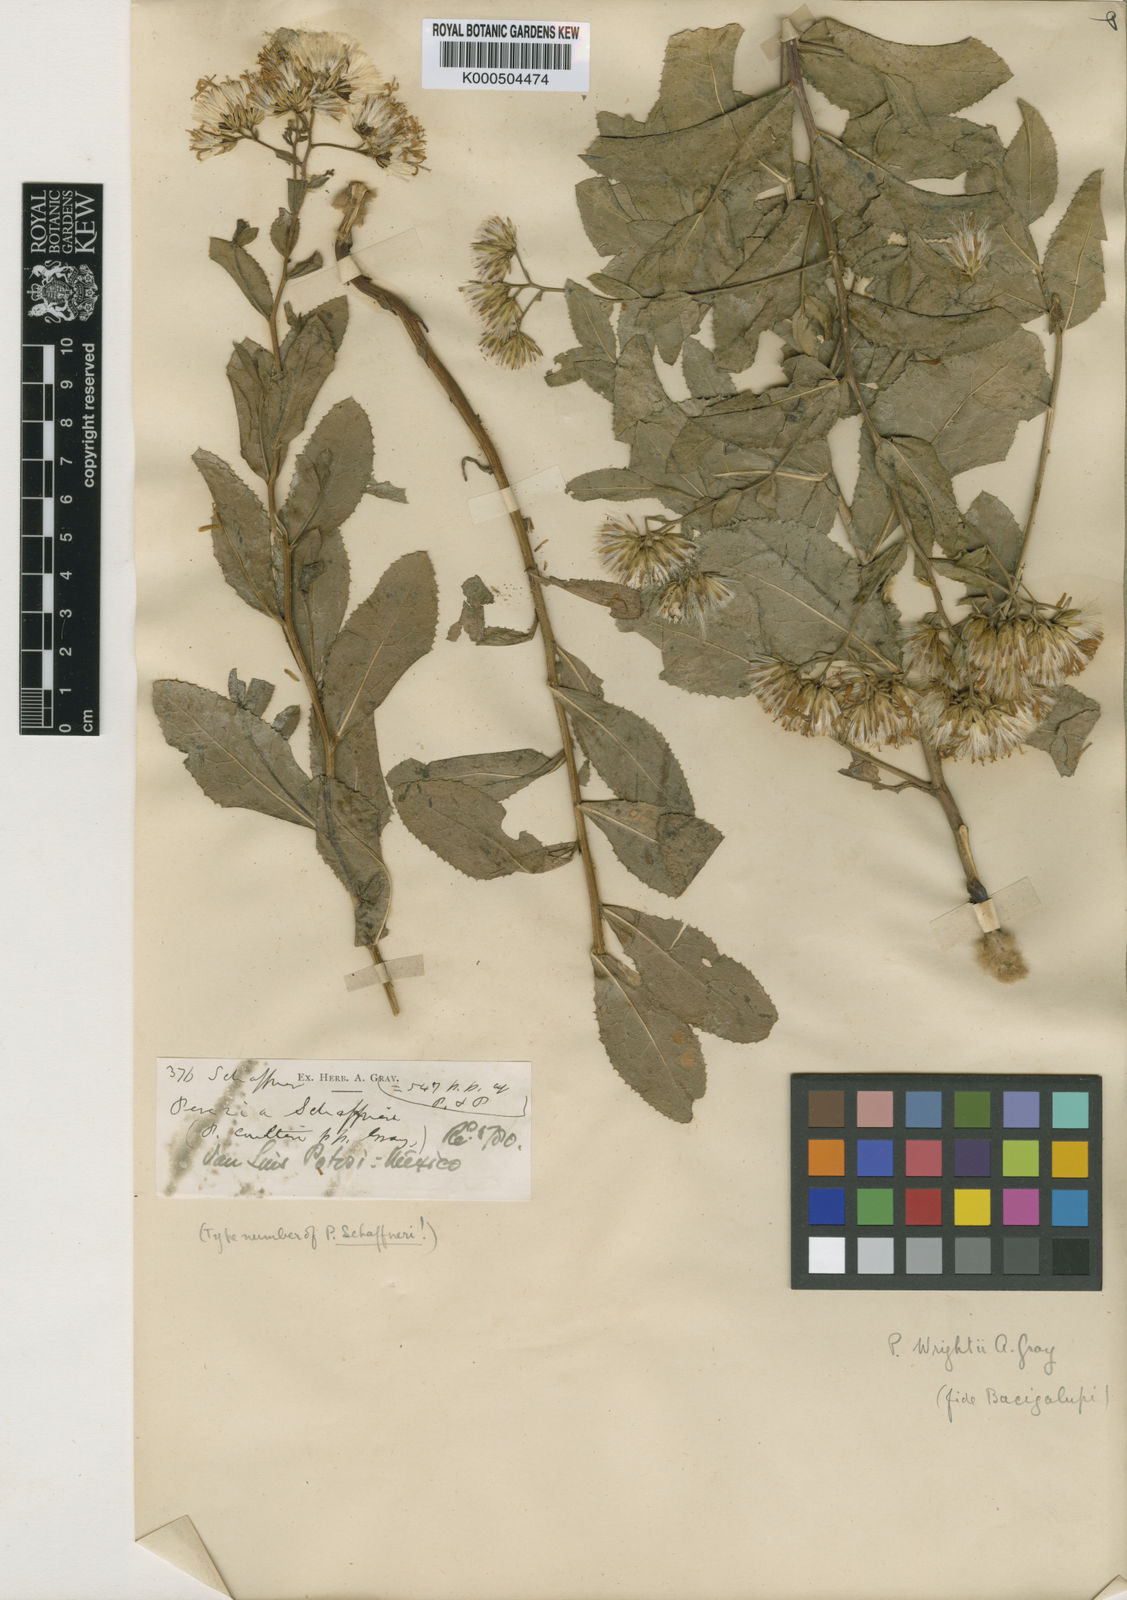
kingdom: Plantae
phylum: Tracheophyta
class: Magnoliopsida
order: Asterales
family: Asteraceae
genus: Acourtia
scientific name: Acourtia wrightii
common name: Brownfoot
